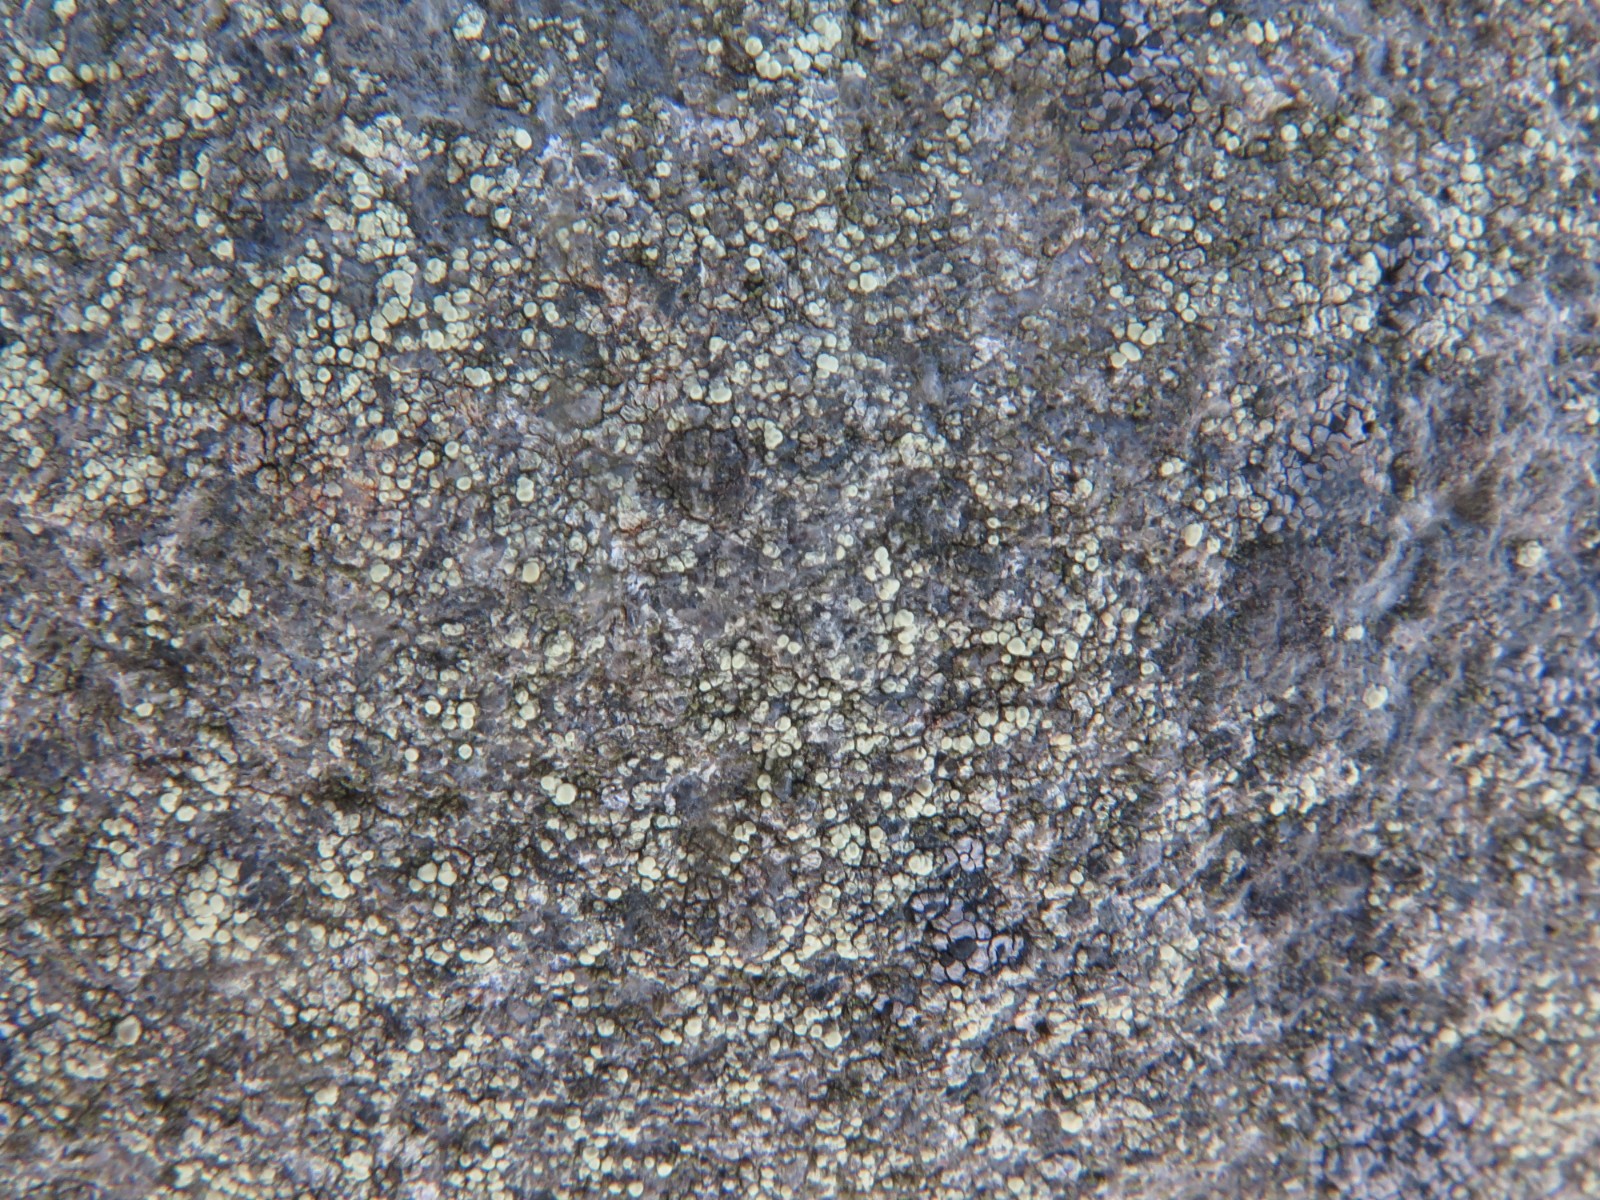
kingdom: Fungi
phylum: Ascomycota
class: Lecanoromycetes
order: Lecanorales
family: Lecanoraceae
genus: Lecanora
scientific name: Lecanora polytropa
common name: bleggrøn kantskivelav
